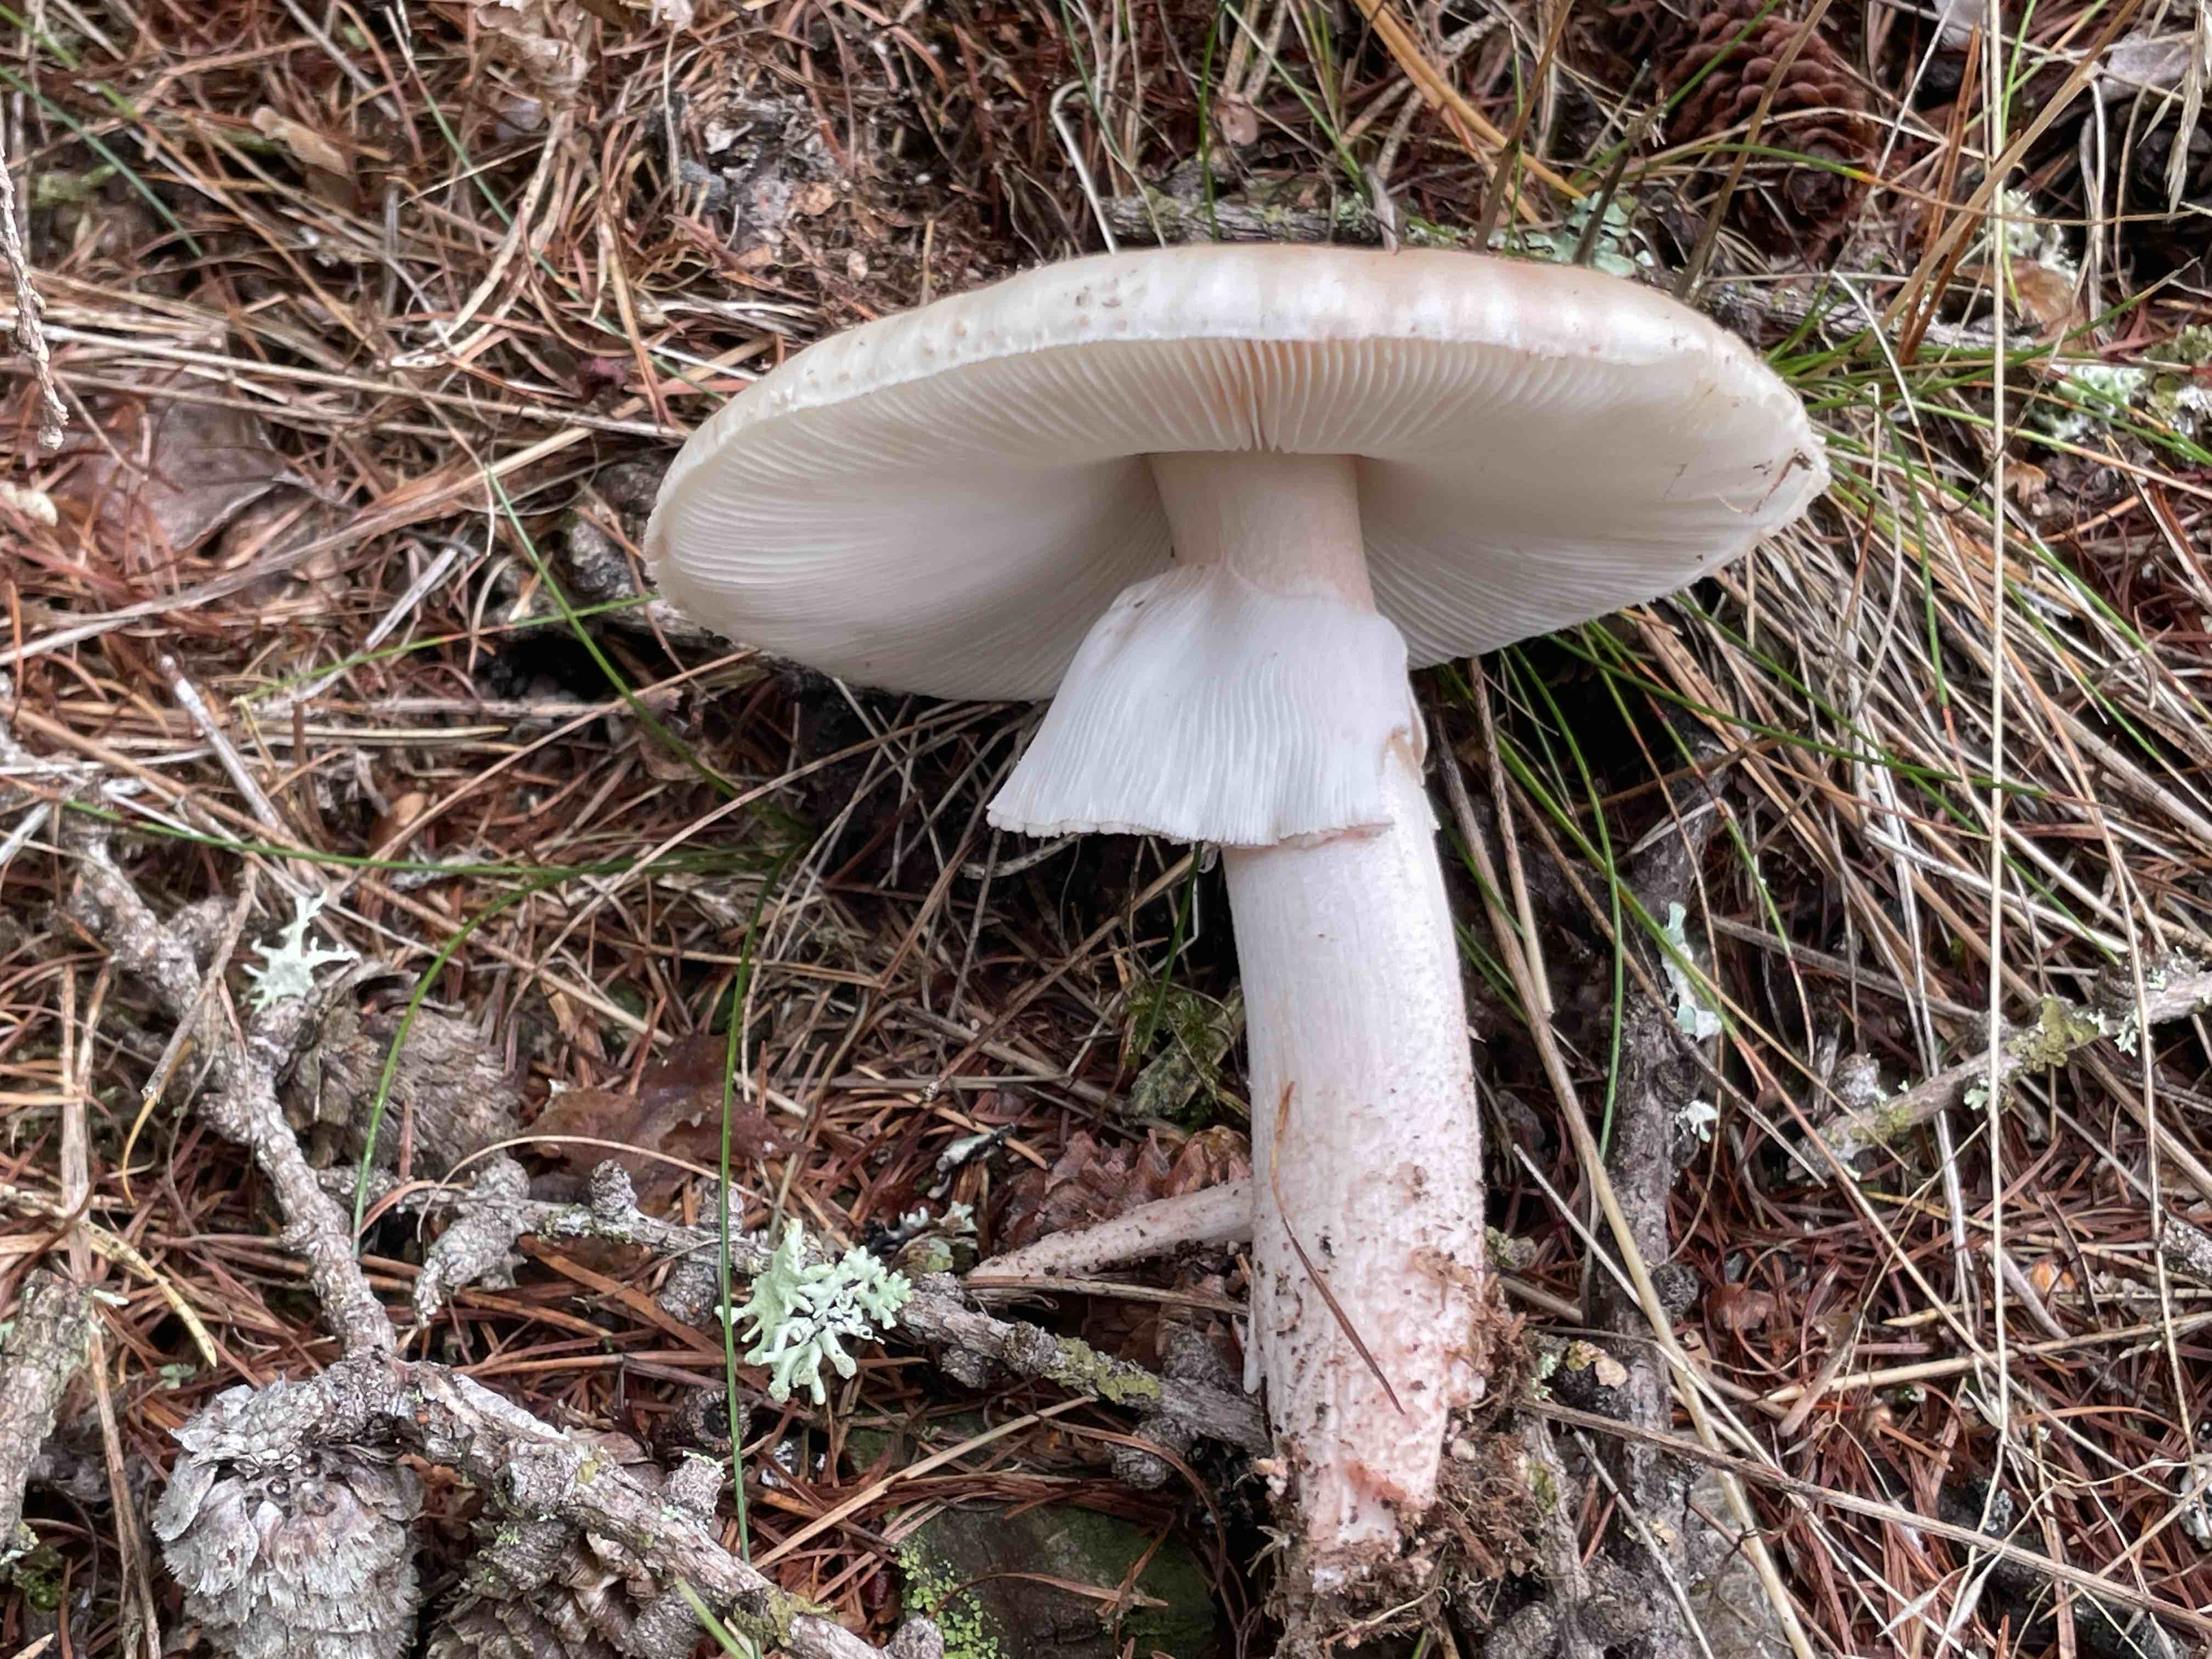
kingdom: Fungi
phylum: Basidiomycota
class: Agaricomycetes
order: Agaricales
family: Amanitaceae
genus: Amanita
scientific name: Amanita rubescens
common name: rødmende fluesvamp
